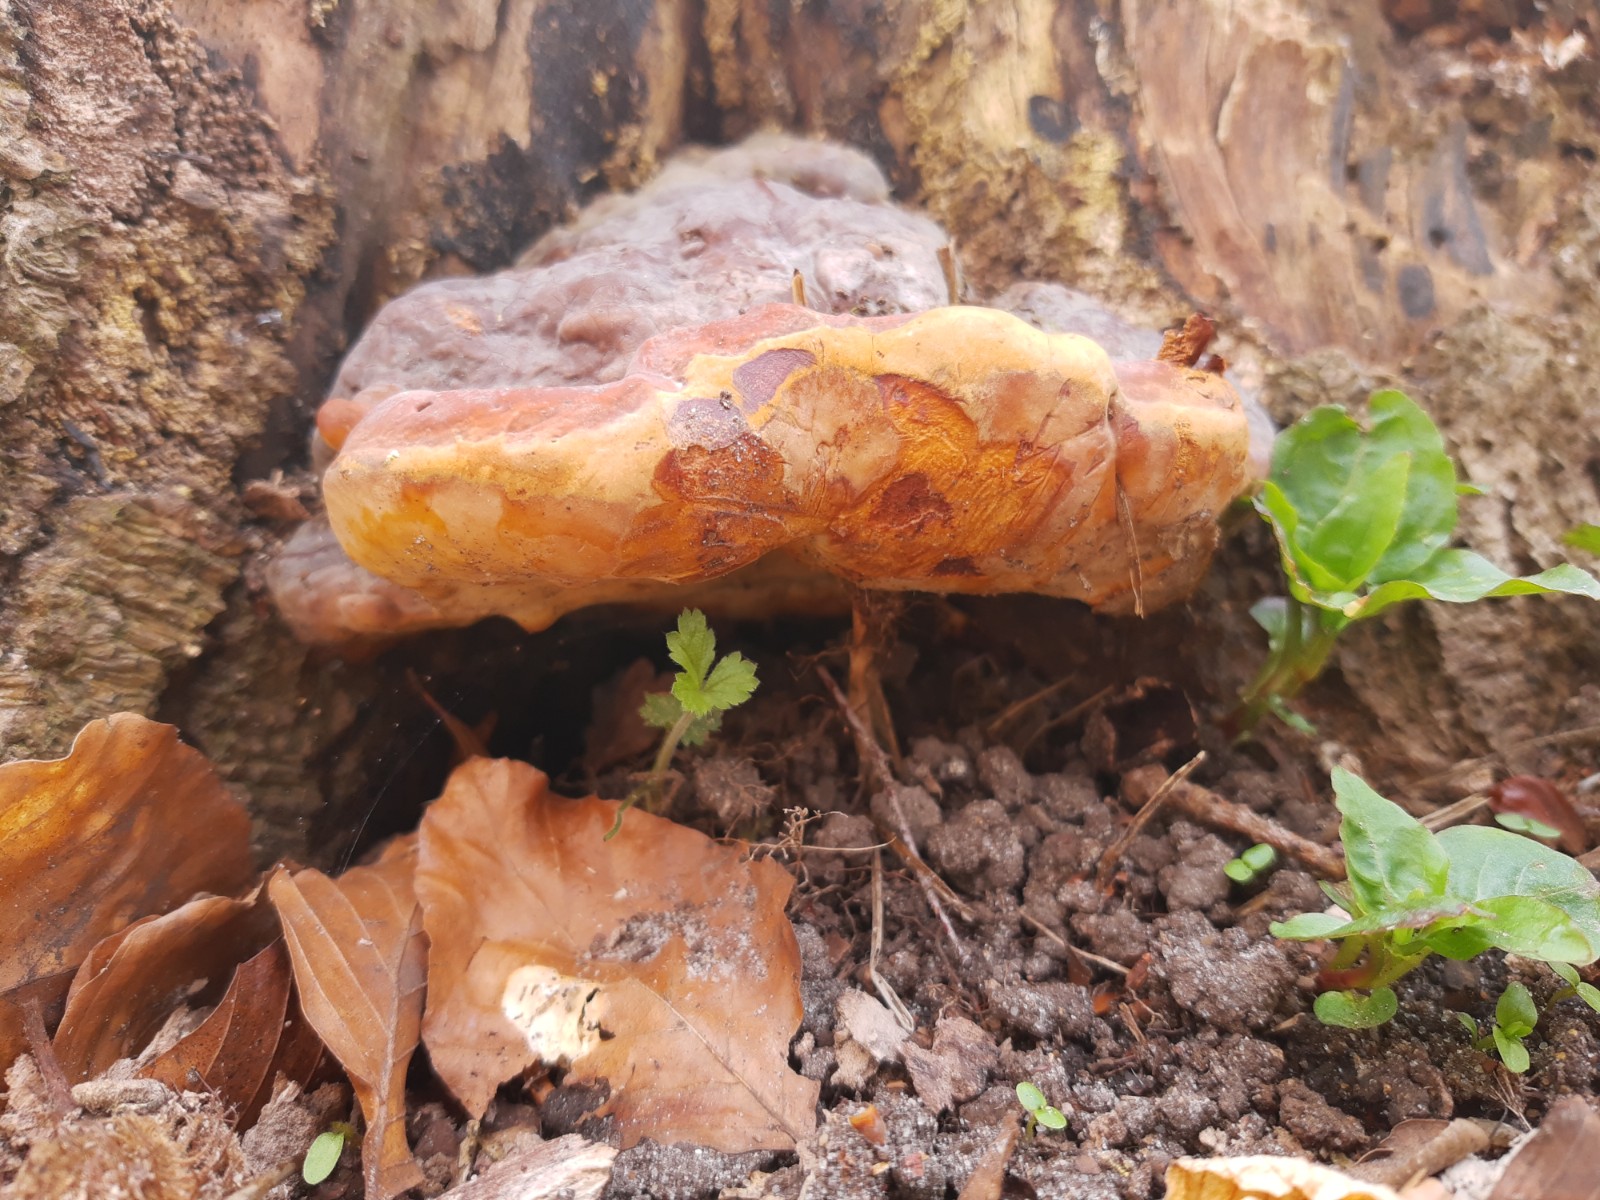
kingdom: Fungi
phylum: Basidiomycota
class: Agaricomycetes
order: Polyporales
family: Polyporaceae
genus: Ganoderma
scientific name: Ganoderma pfeifferi
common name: kobberrød lakporesvamp
